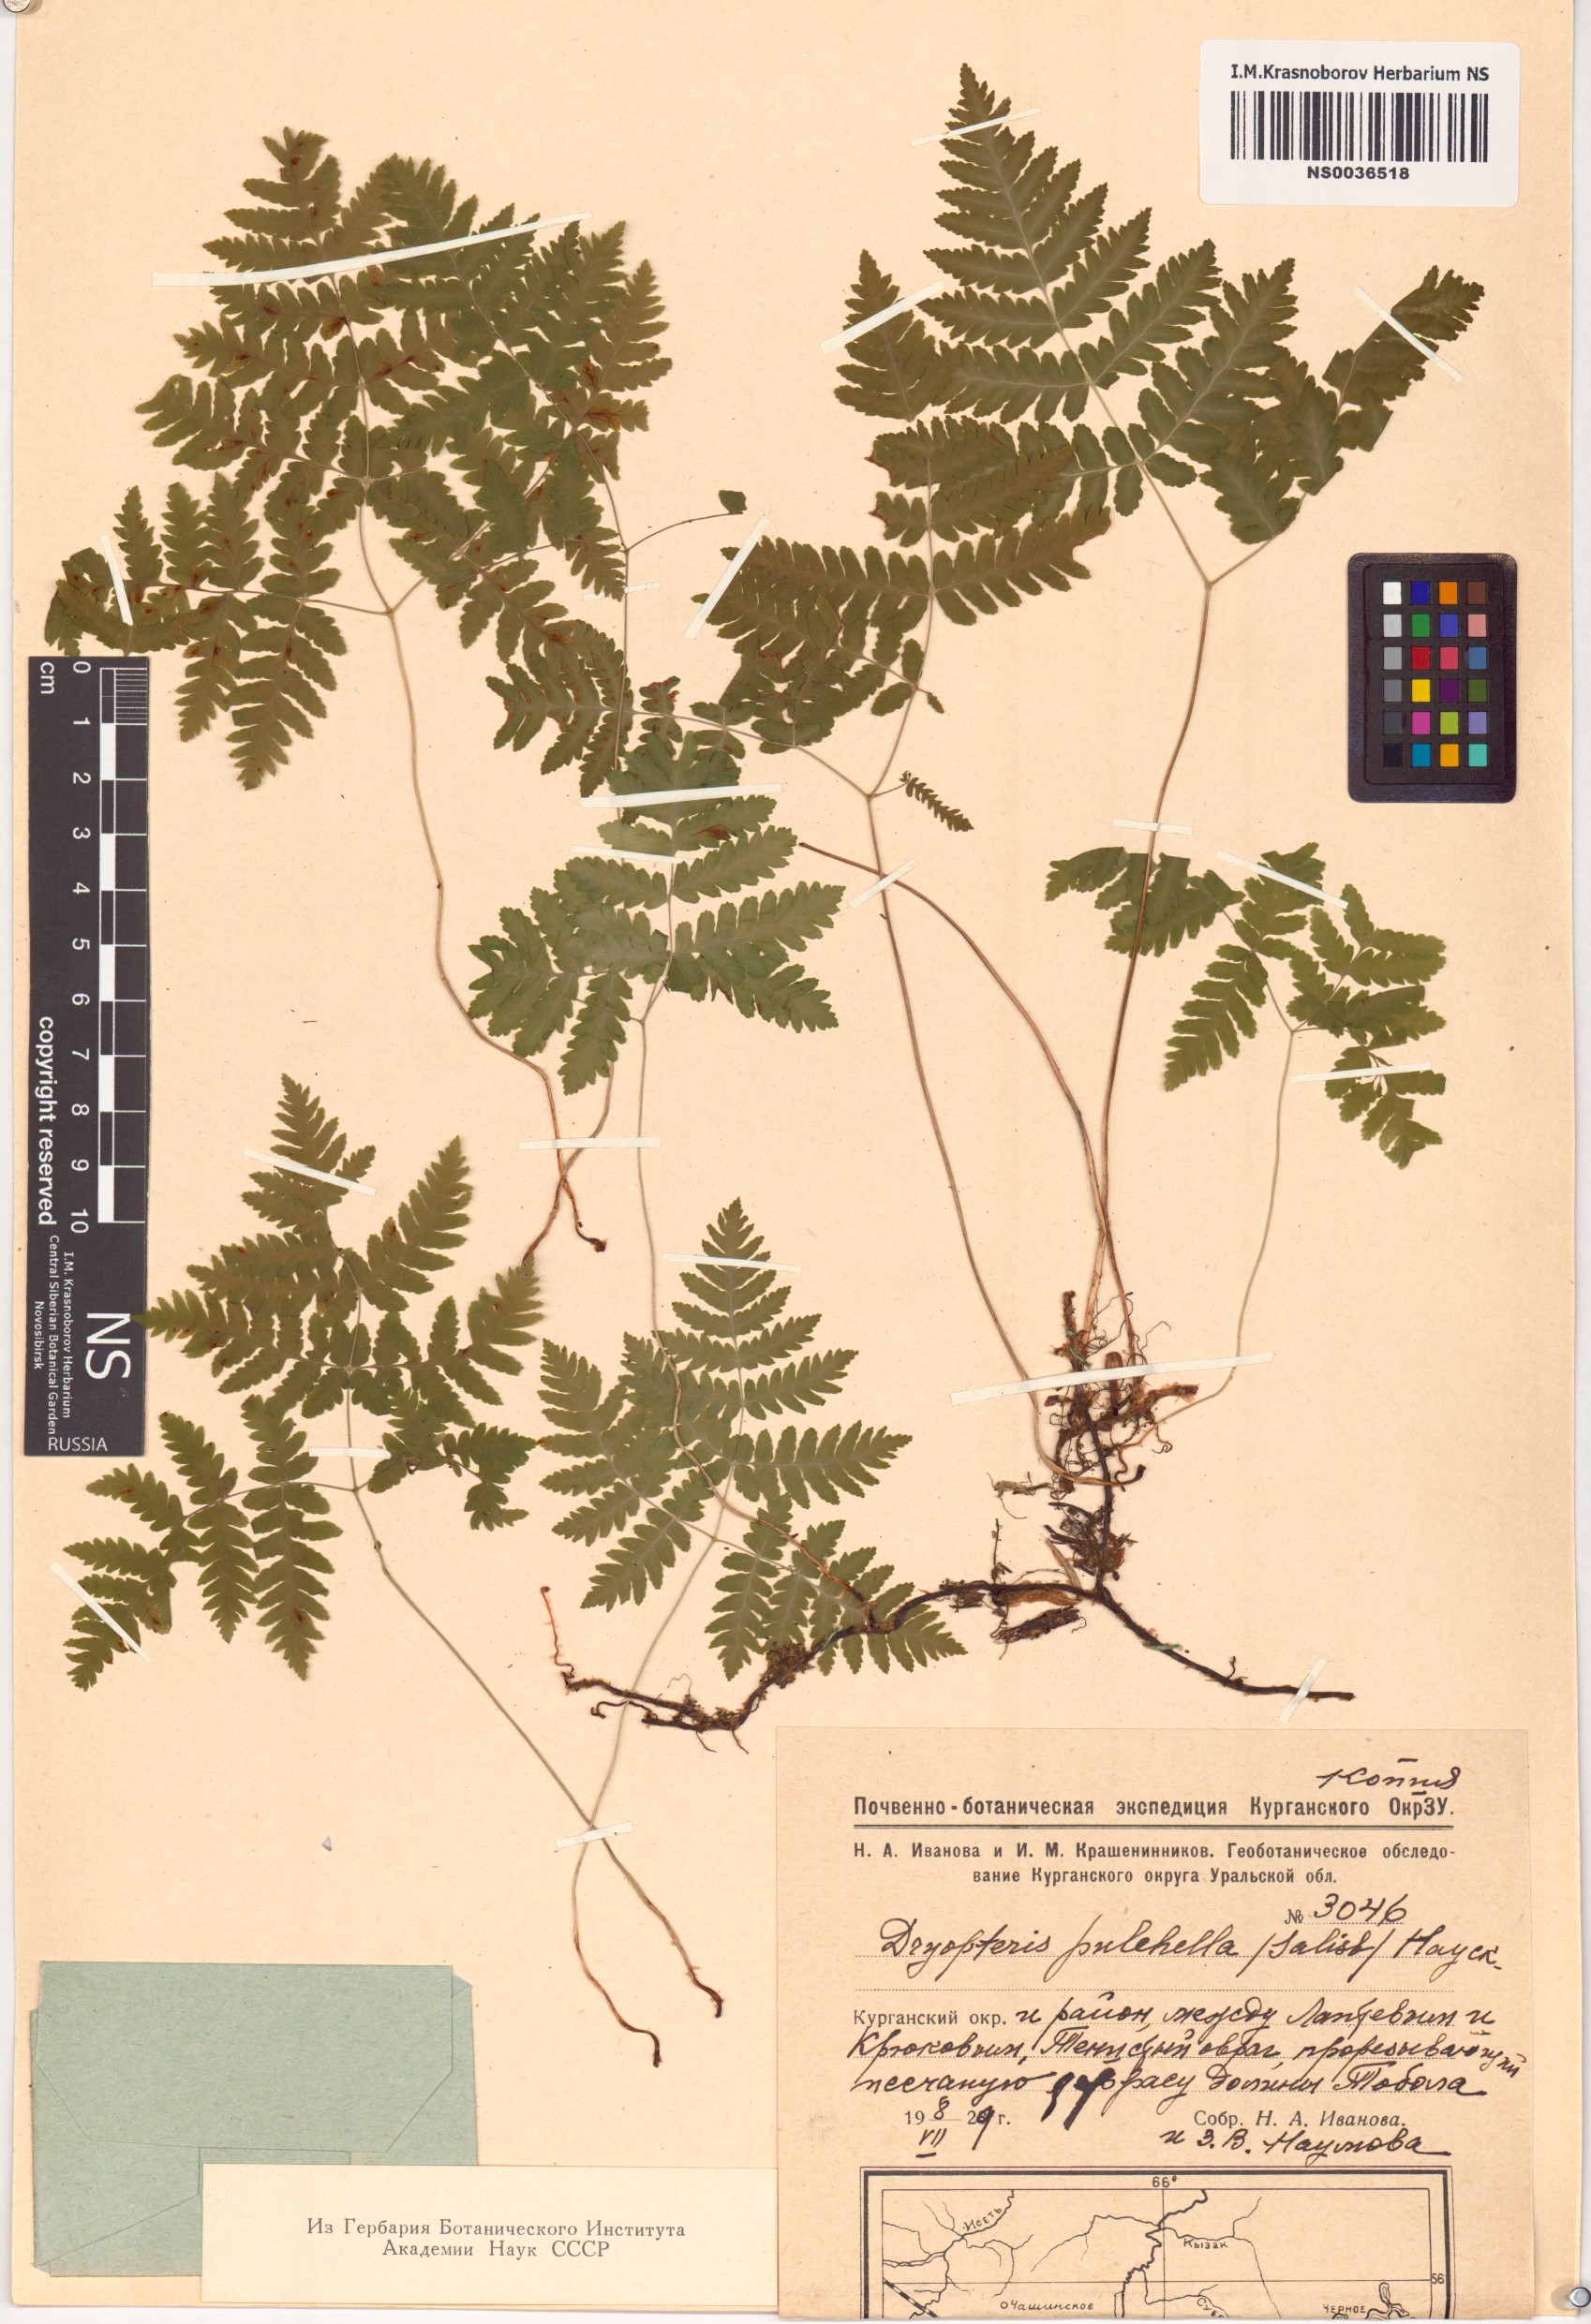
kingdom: Plantae
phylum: Tracheophyta
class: Polypodiopsida
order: Polypodiales
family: Cystopteridaceae
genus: Gymnocarpium
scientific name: Gymnocarpium dryopteris
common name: Oak fern
